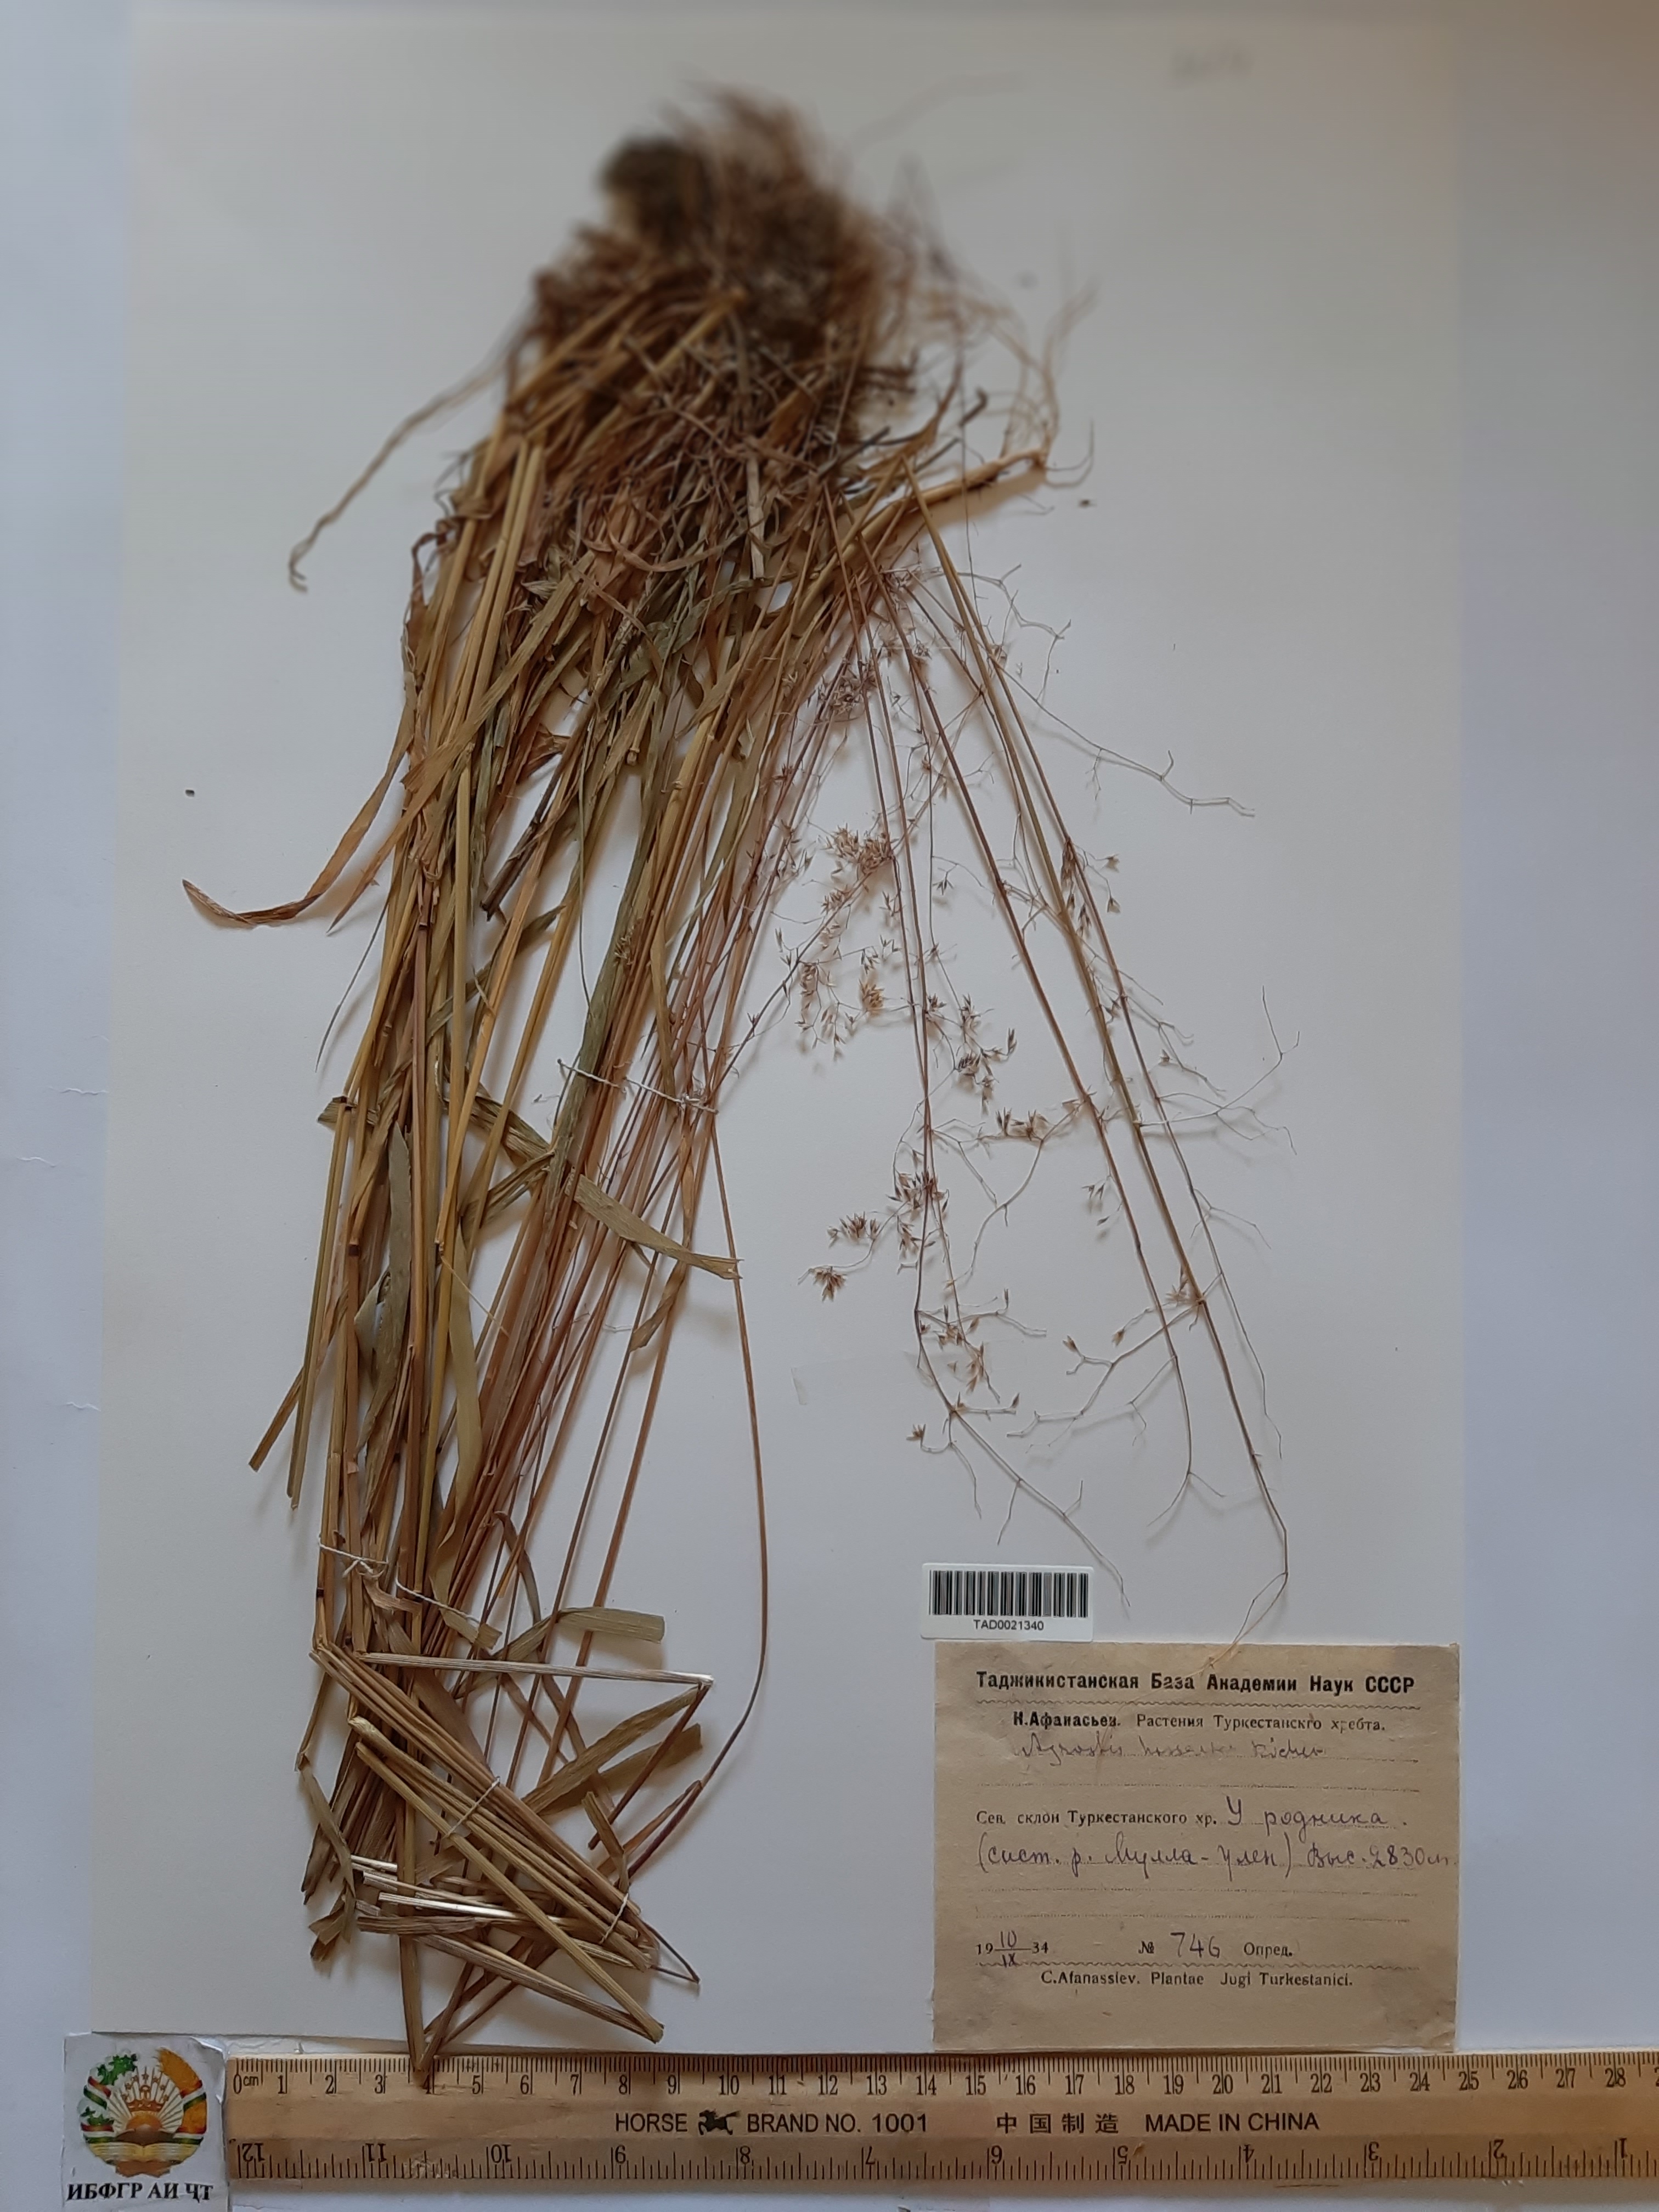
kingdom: Plantae
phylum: Tracheophyta
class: Liliopsida
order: Poales
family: Poaceae
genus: Agrostis
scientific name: Agrostis gigantea
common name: Black bent
